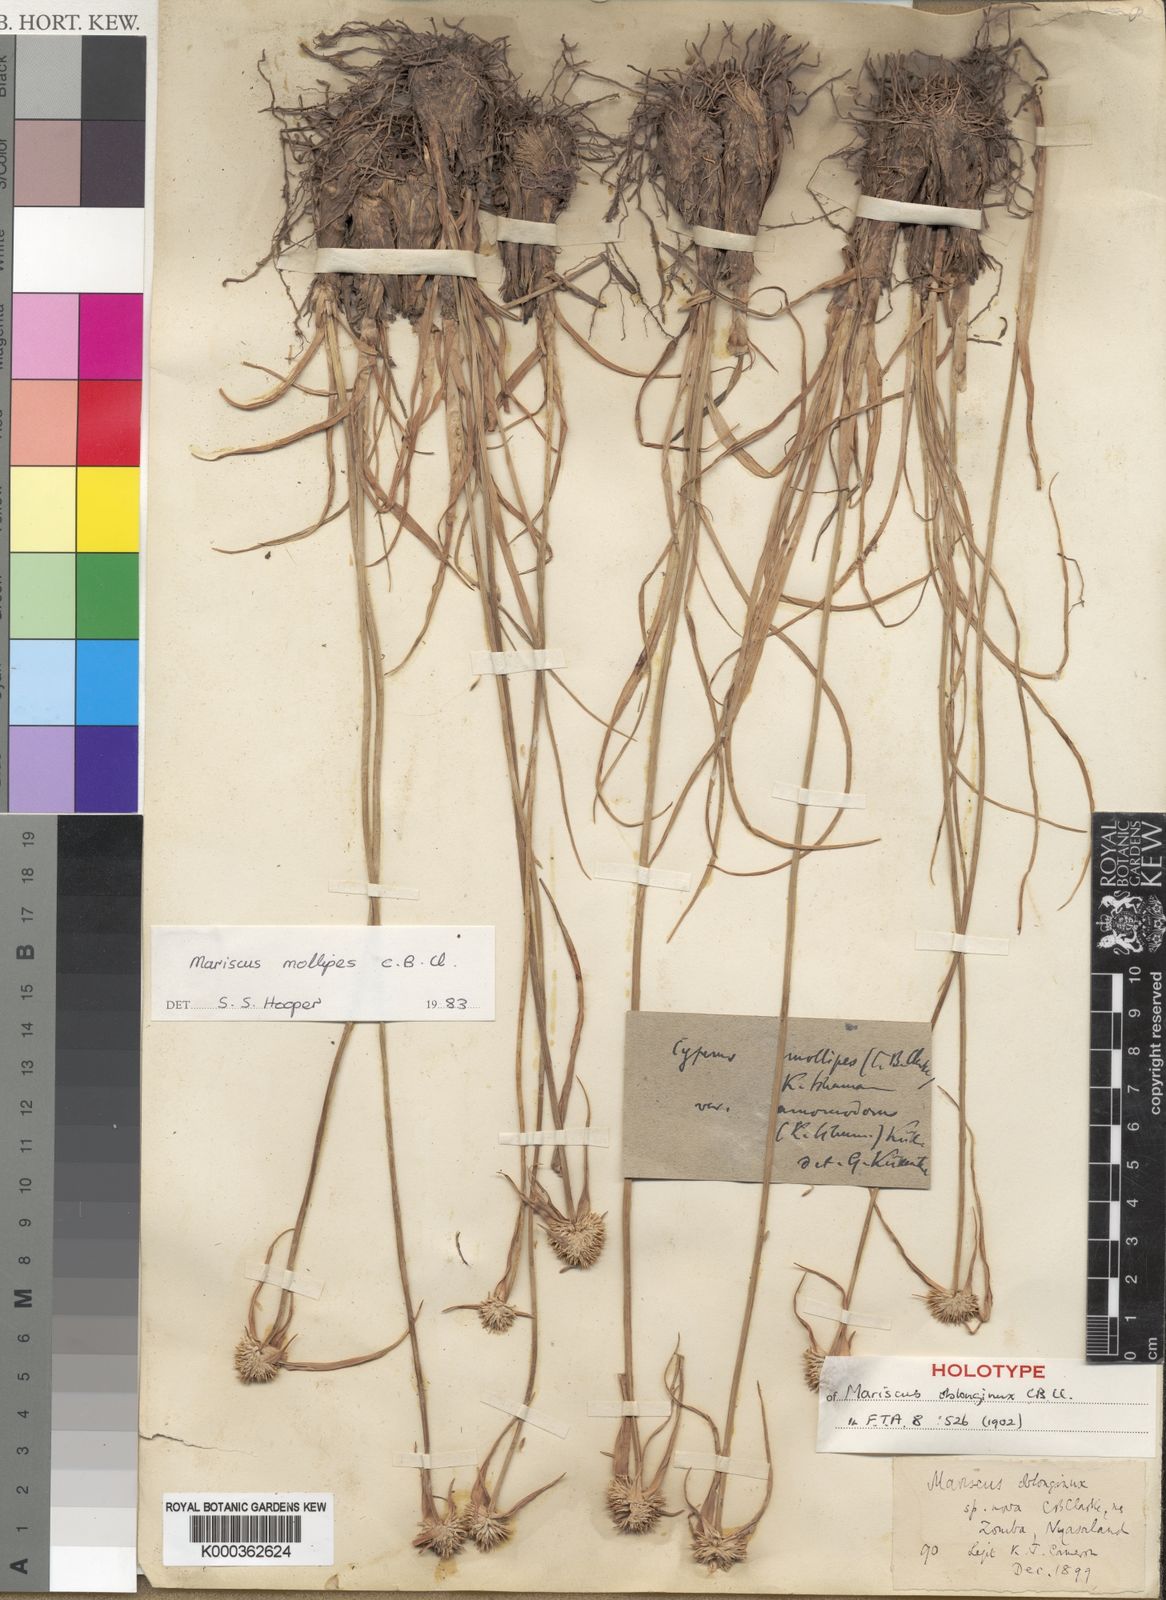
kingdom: Plantae
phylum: Tracheophyta
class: Liliopsida
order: Poales
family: Cyperaceae
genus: Cyperus
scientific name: Cyperus mollipes
